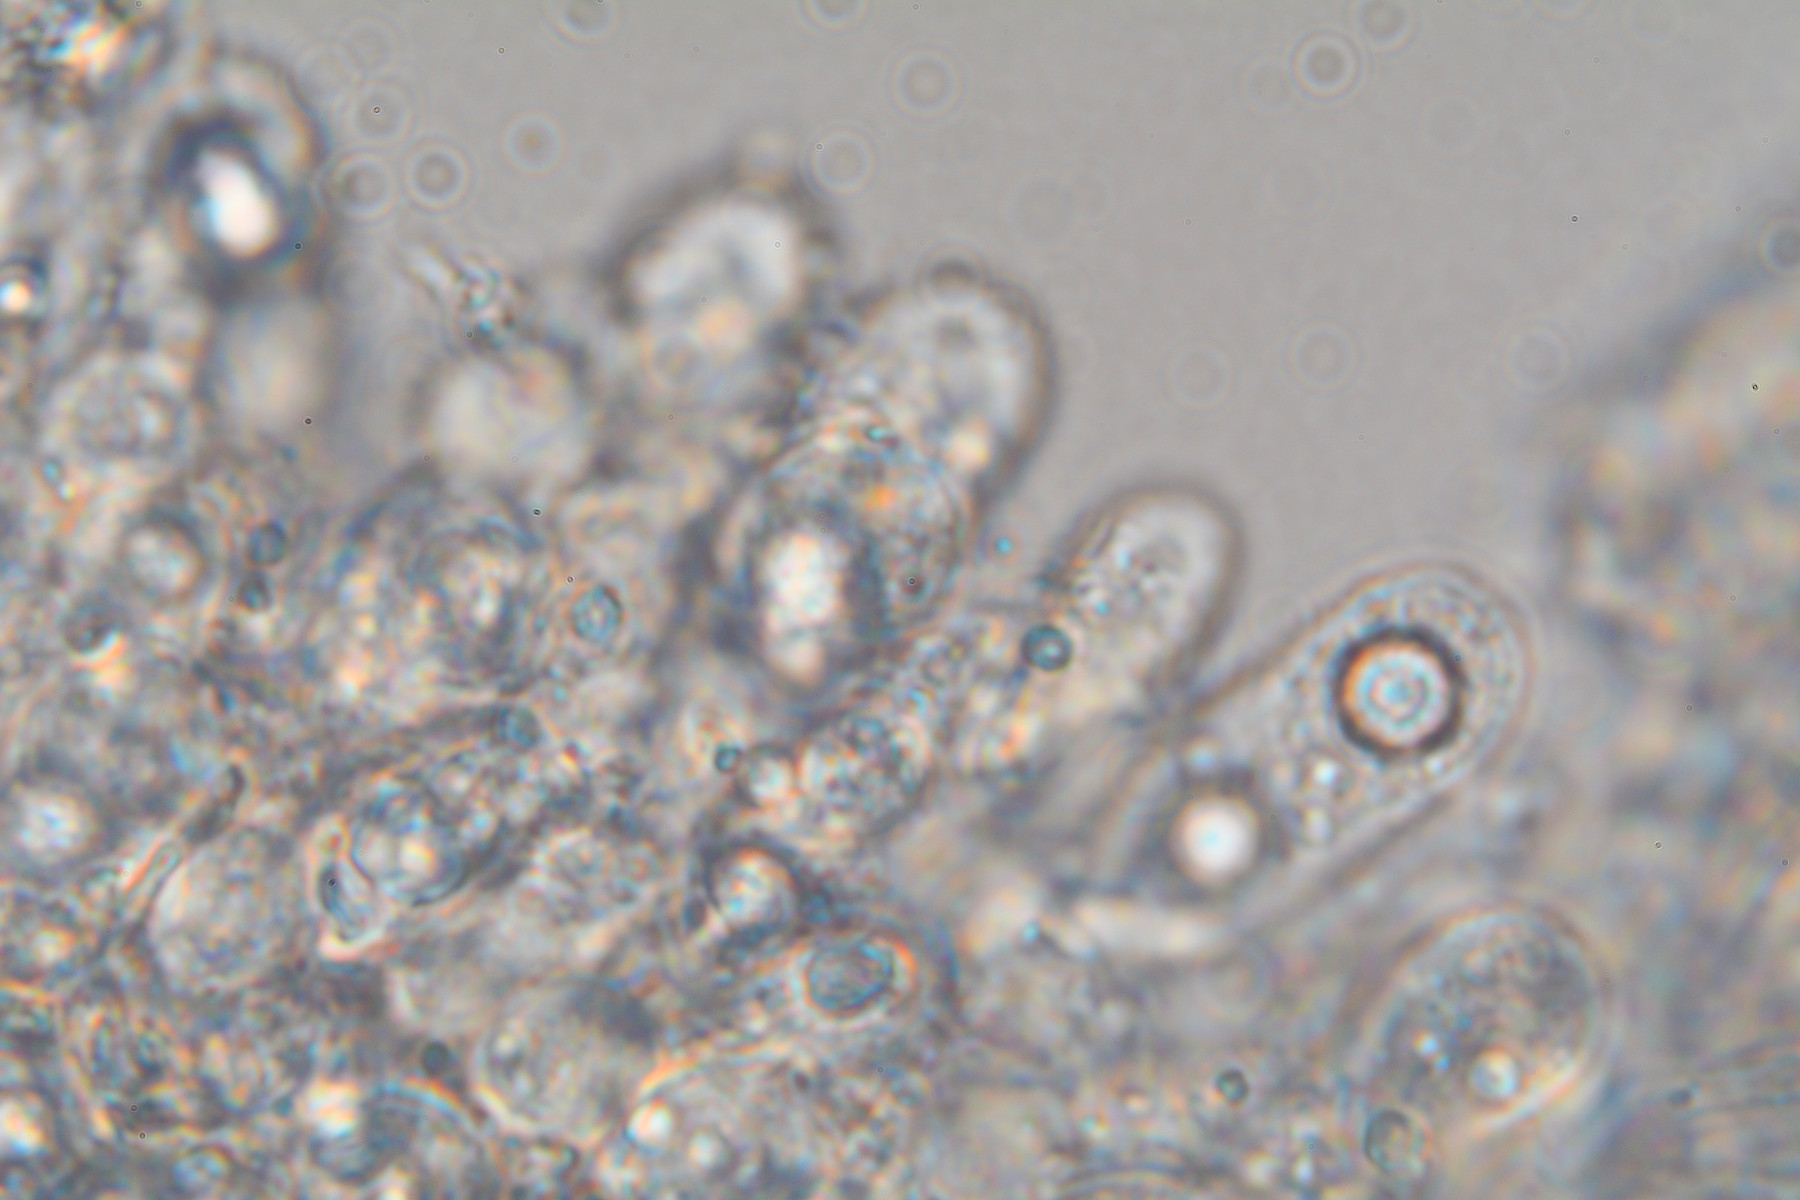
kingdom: Fungi
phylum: Basidiomycota
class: Agaricomycetes
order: Agaricales
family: Mycenaceae
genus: Mycena
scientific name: Mycena
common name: huesvamp
